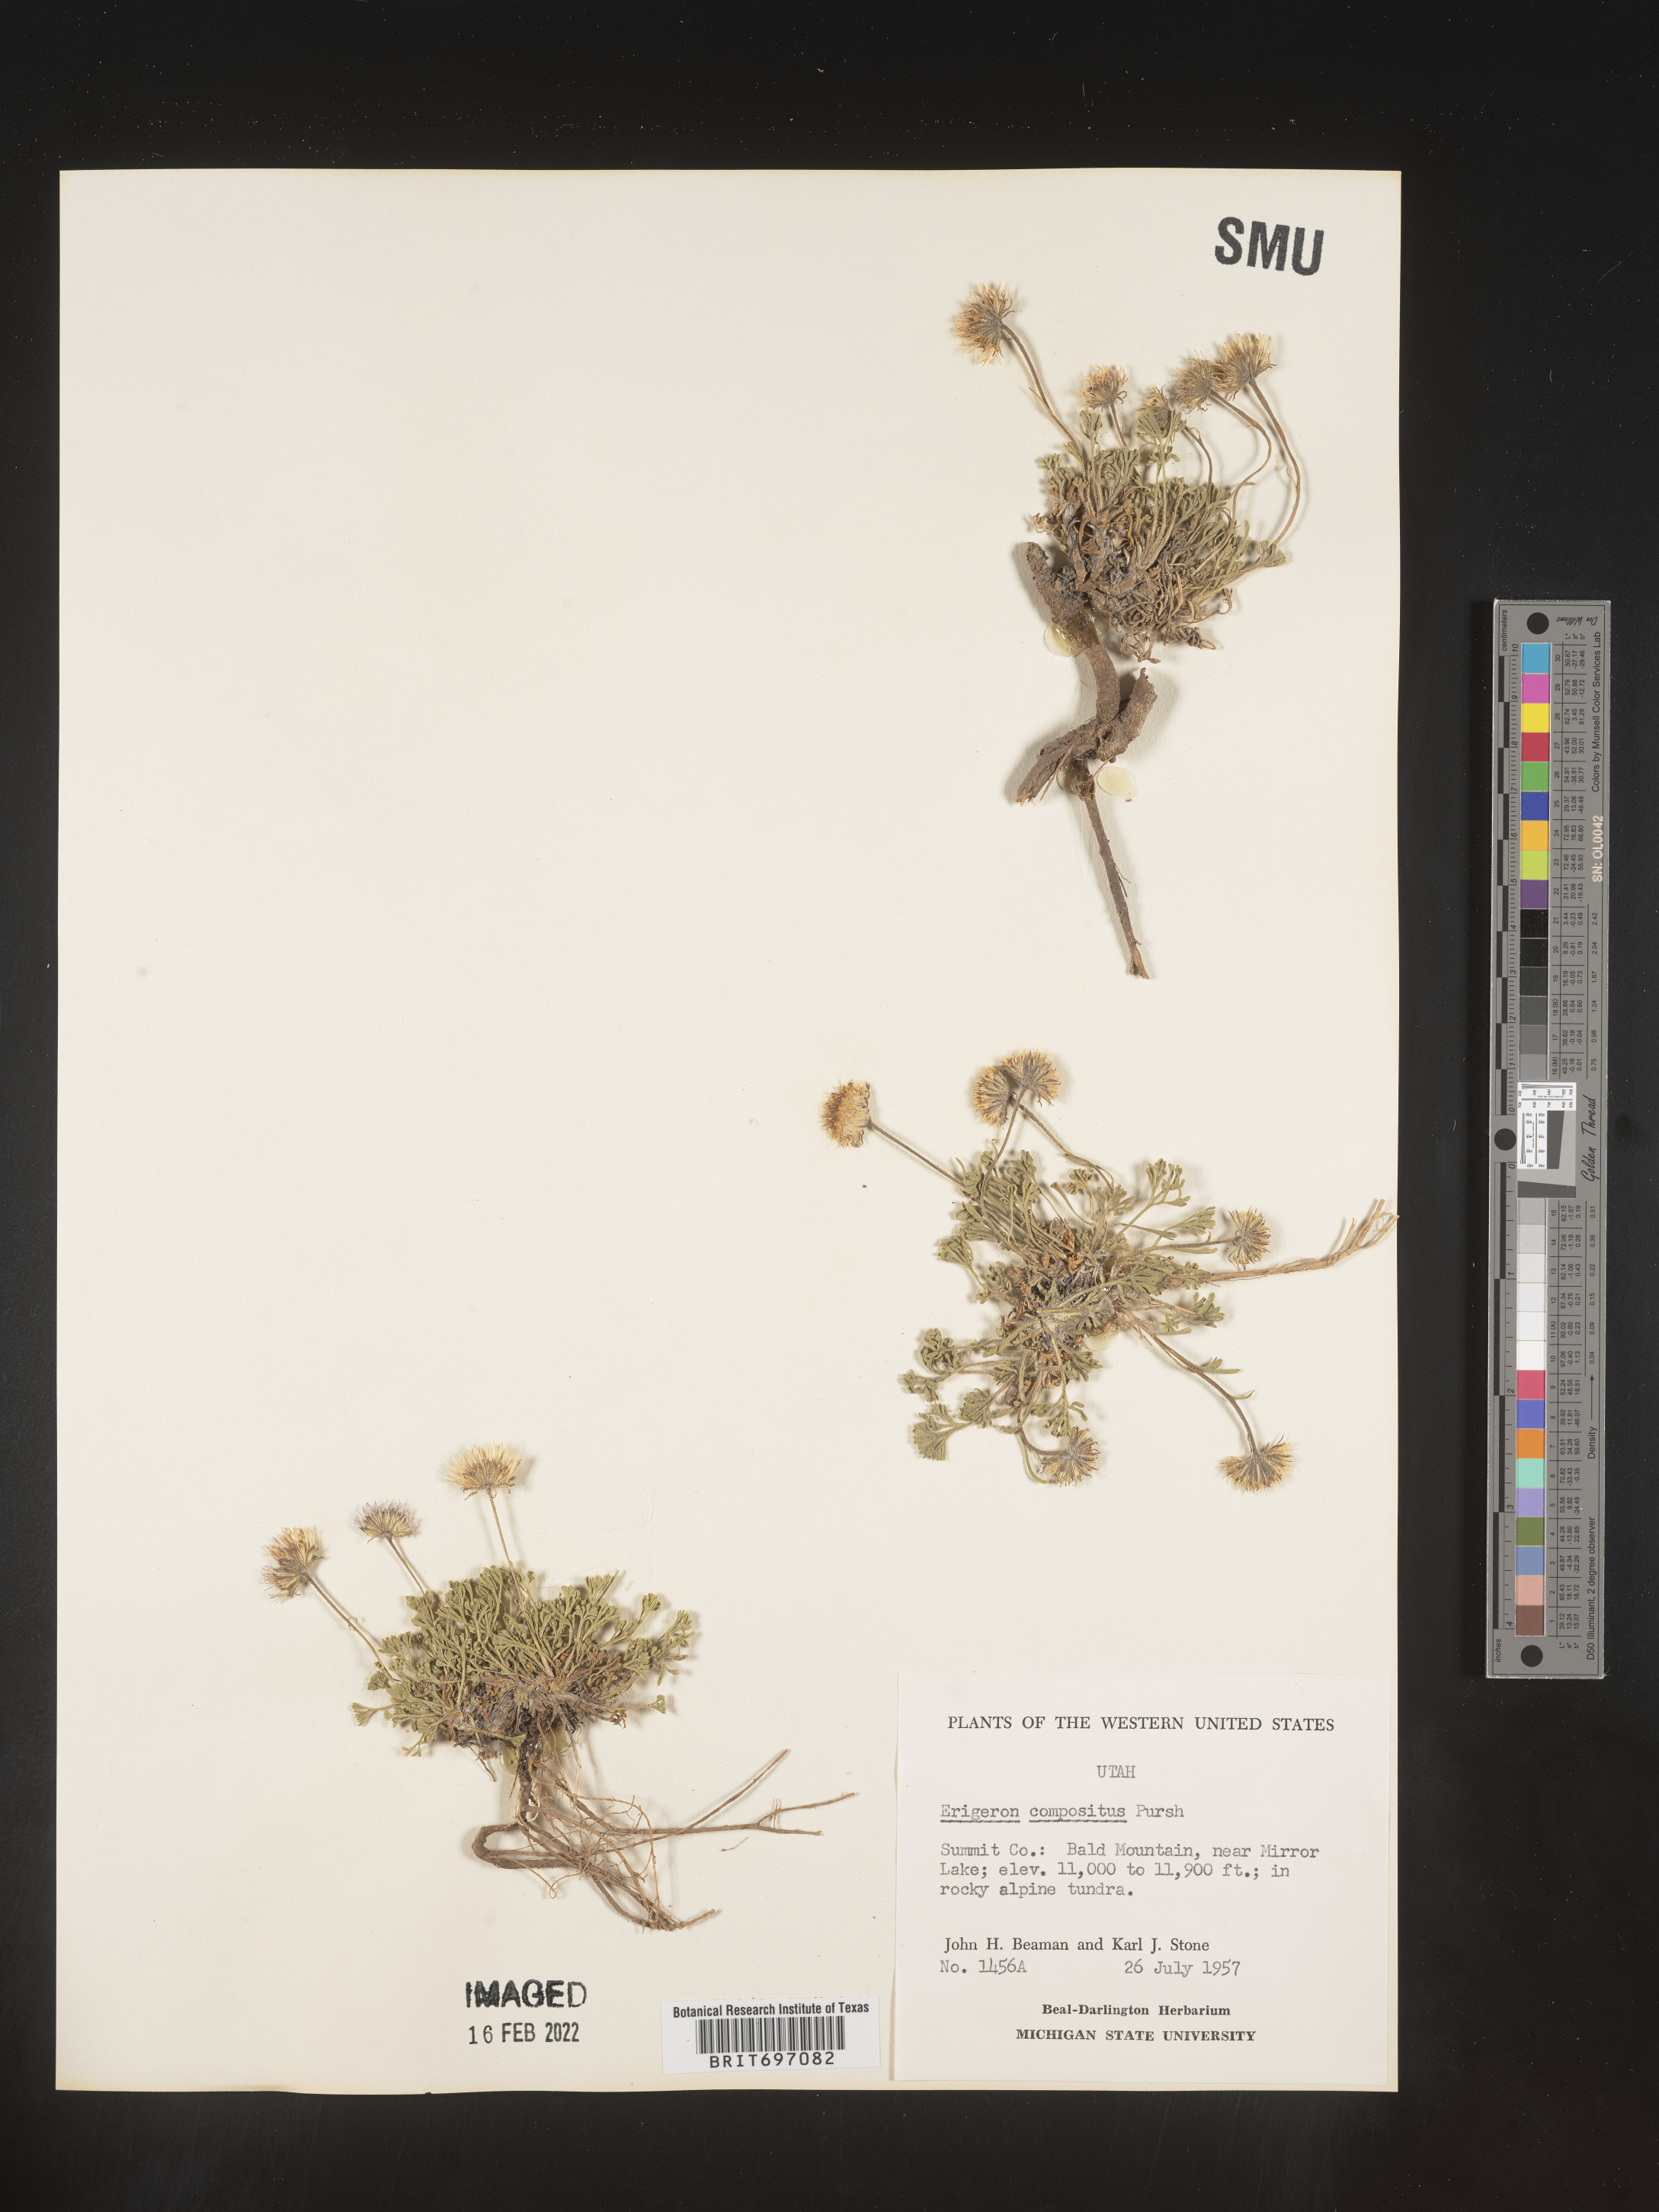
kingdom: Plantae
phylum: Tracheophyta
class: Magnoliopsida
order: Asterales
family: Asteraceae
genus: Erigeron
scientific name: Erigeron compositus
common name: Dwarf mountain fleabane
